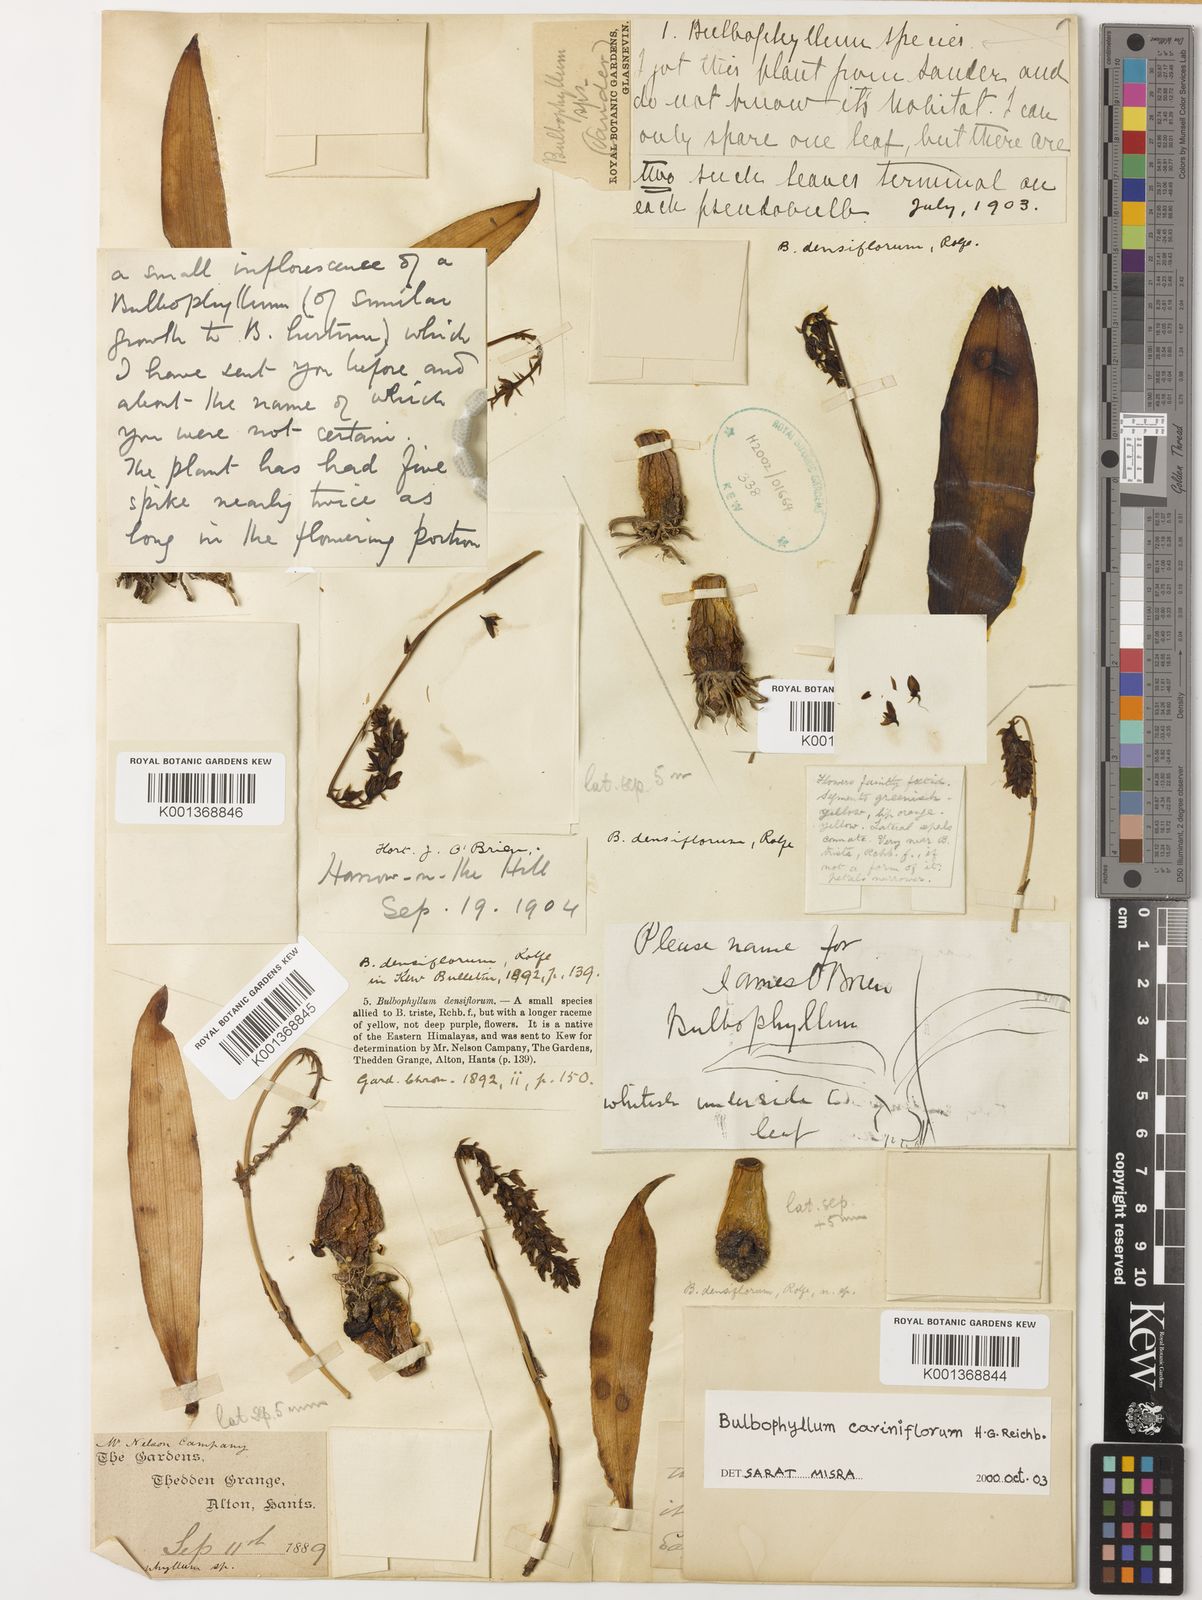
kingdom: Plantae
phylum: Tracheophyta
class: Liliopsida
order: Asparagales
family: Orchidaceae
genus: Bulbophyllum
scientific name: Bulbophyllum cariniflorum
